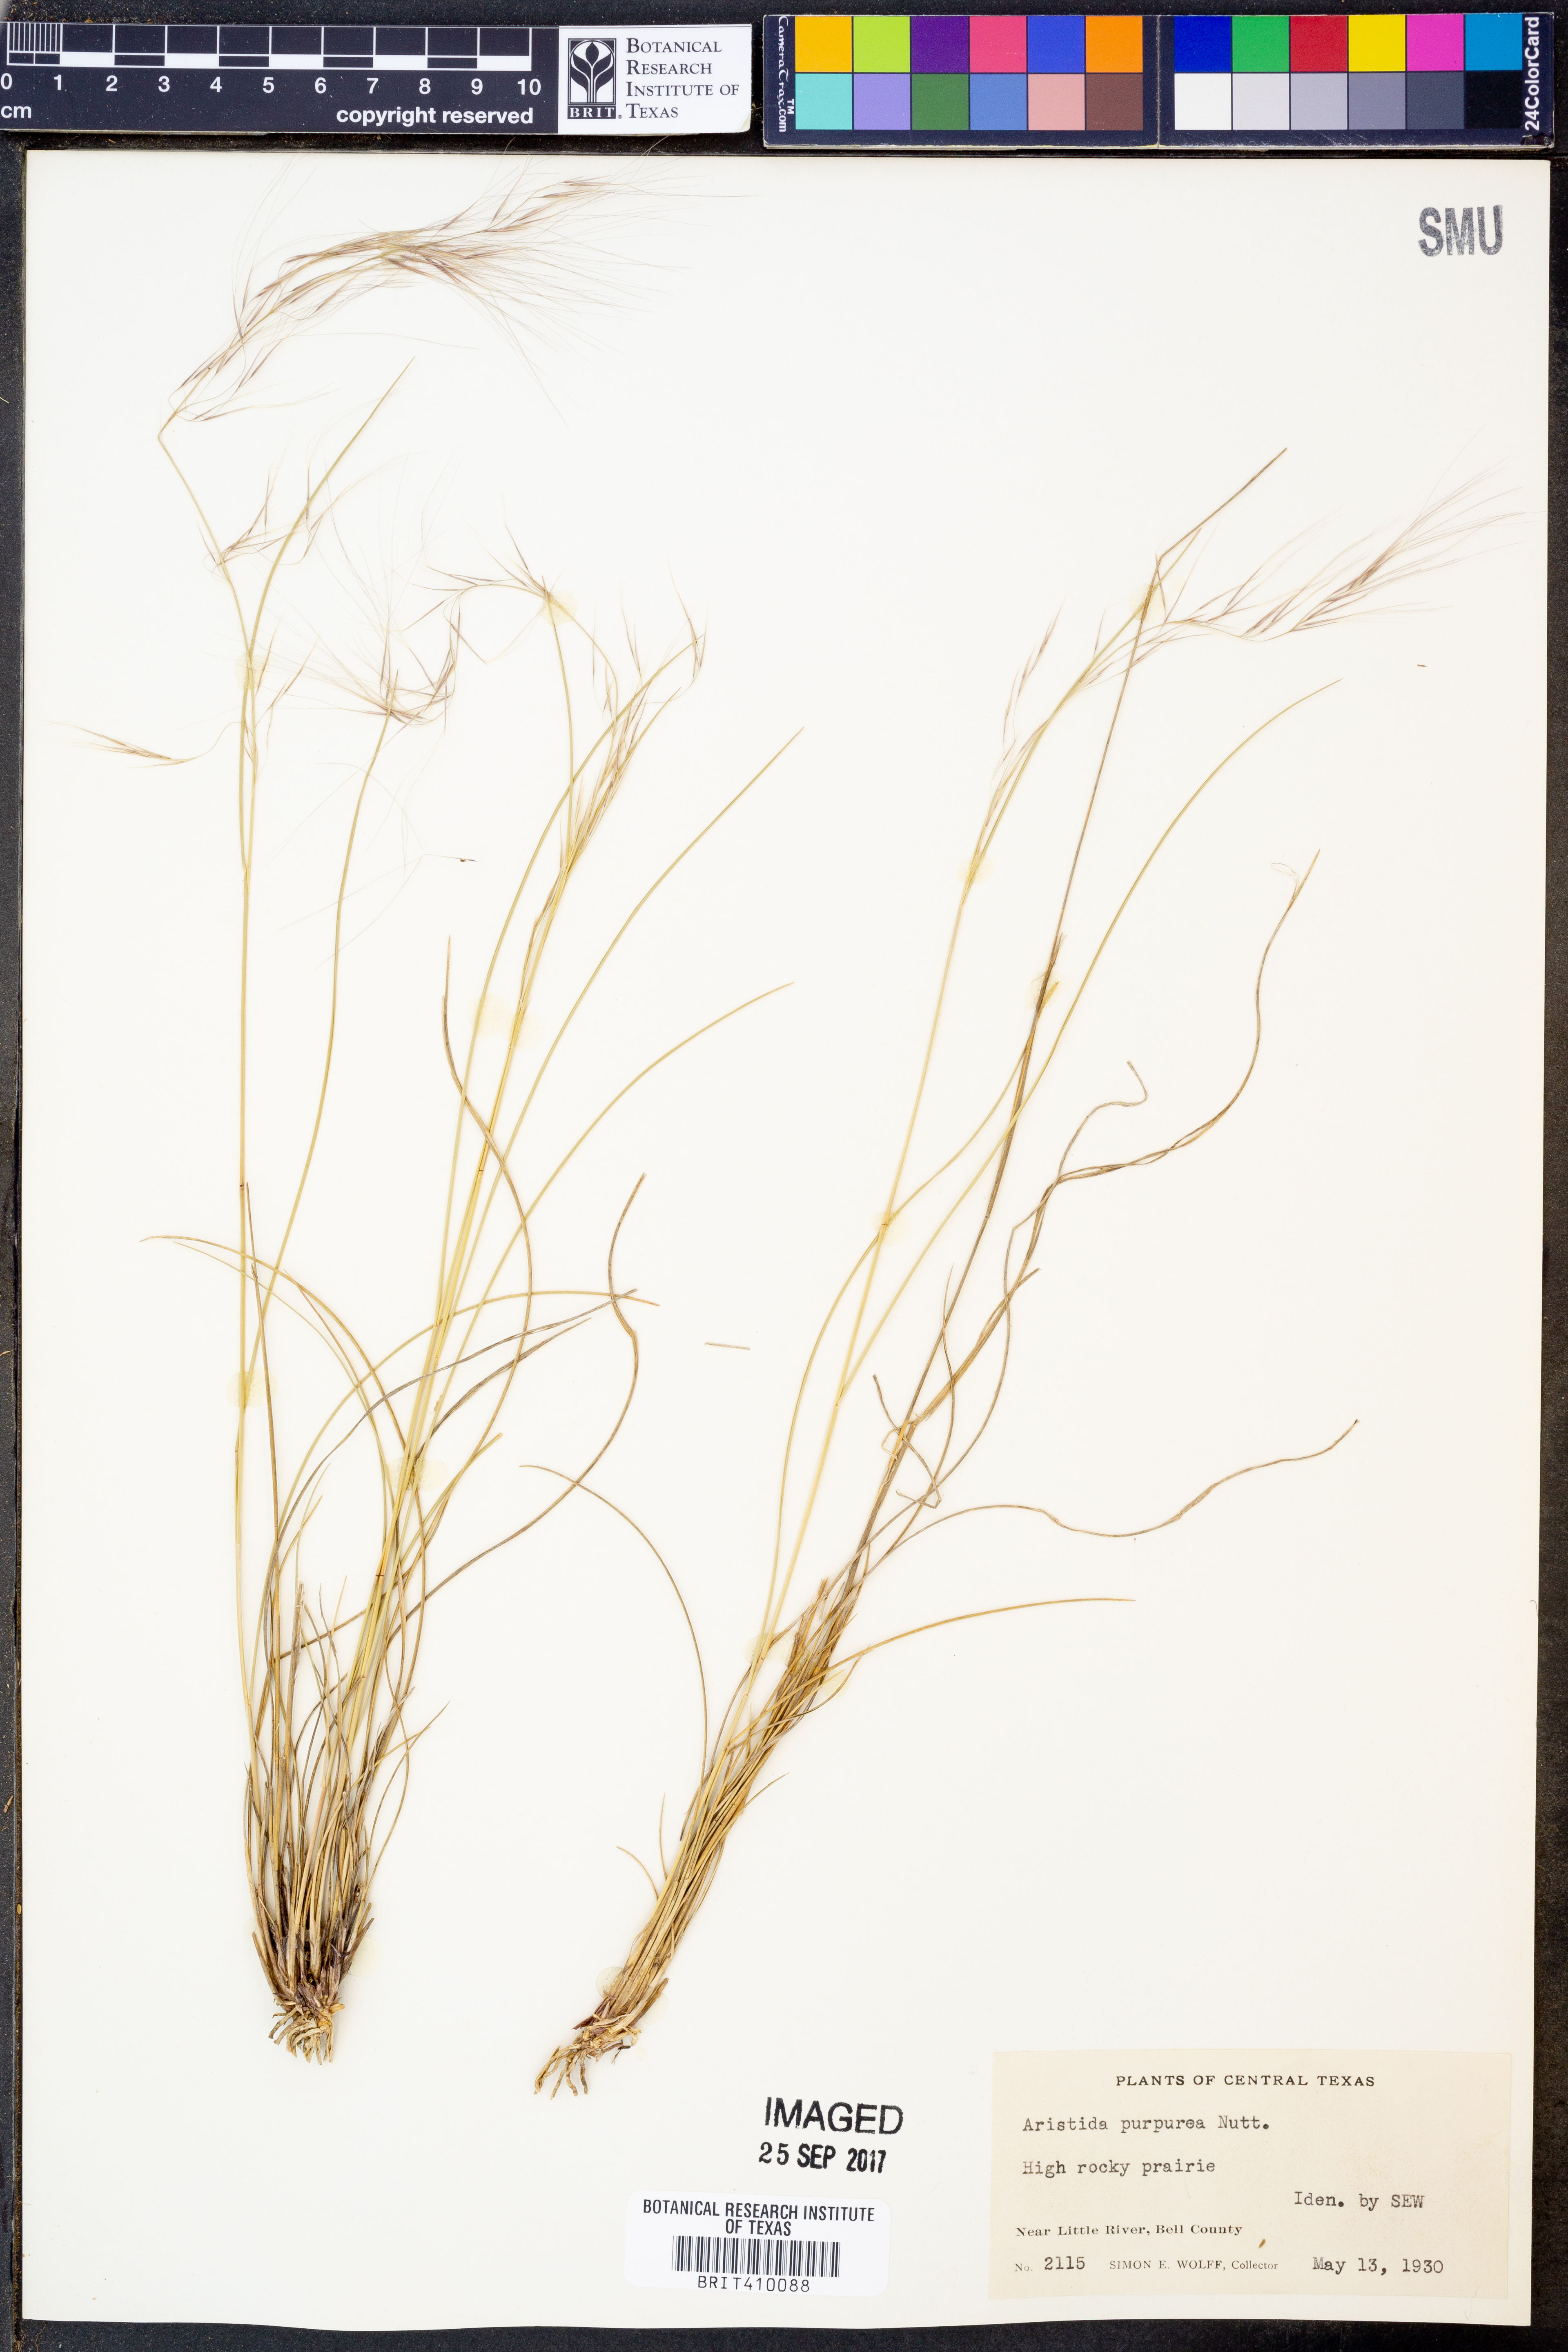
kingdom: Plantae
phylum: Tracheophyta
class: Liliopsida
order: Poales
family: Poaceae
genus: Aristida
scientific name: Aristida purpurea
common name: Purple threeawn
